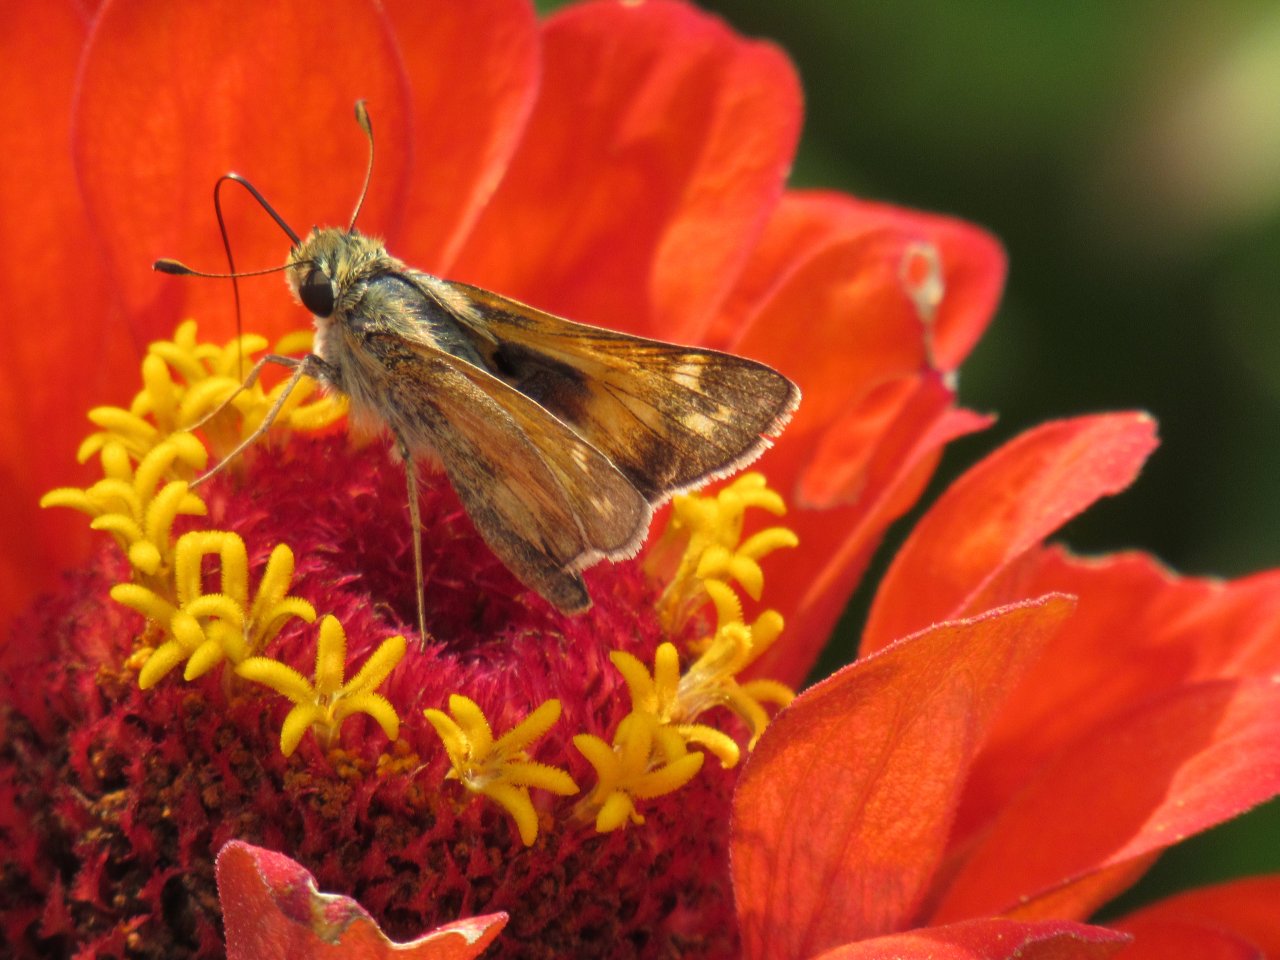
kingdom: Animalia
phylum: Arthropoda
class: Insecta
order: Lepidoptera
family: Hesperiidae
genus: Atalopedes
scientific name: Atalopedes campestris
